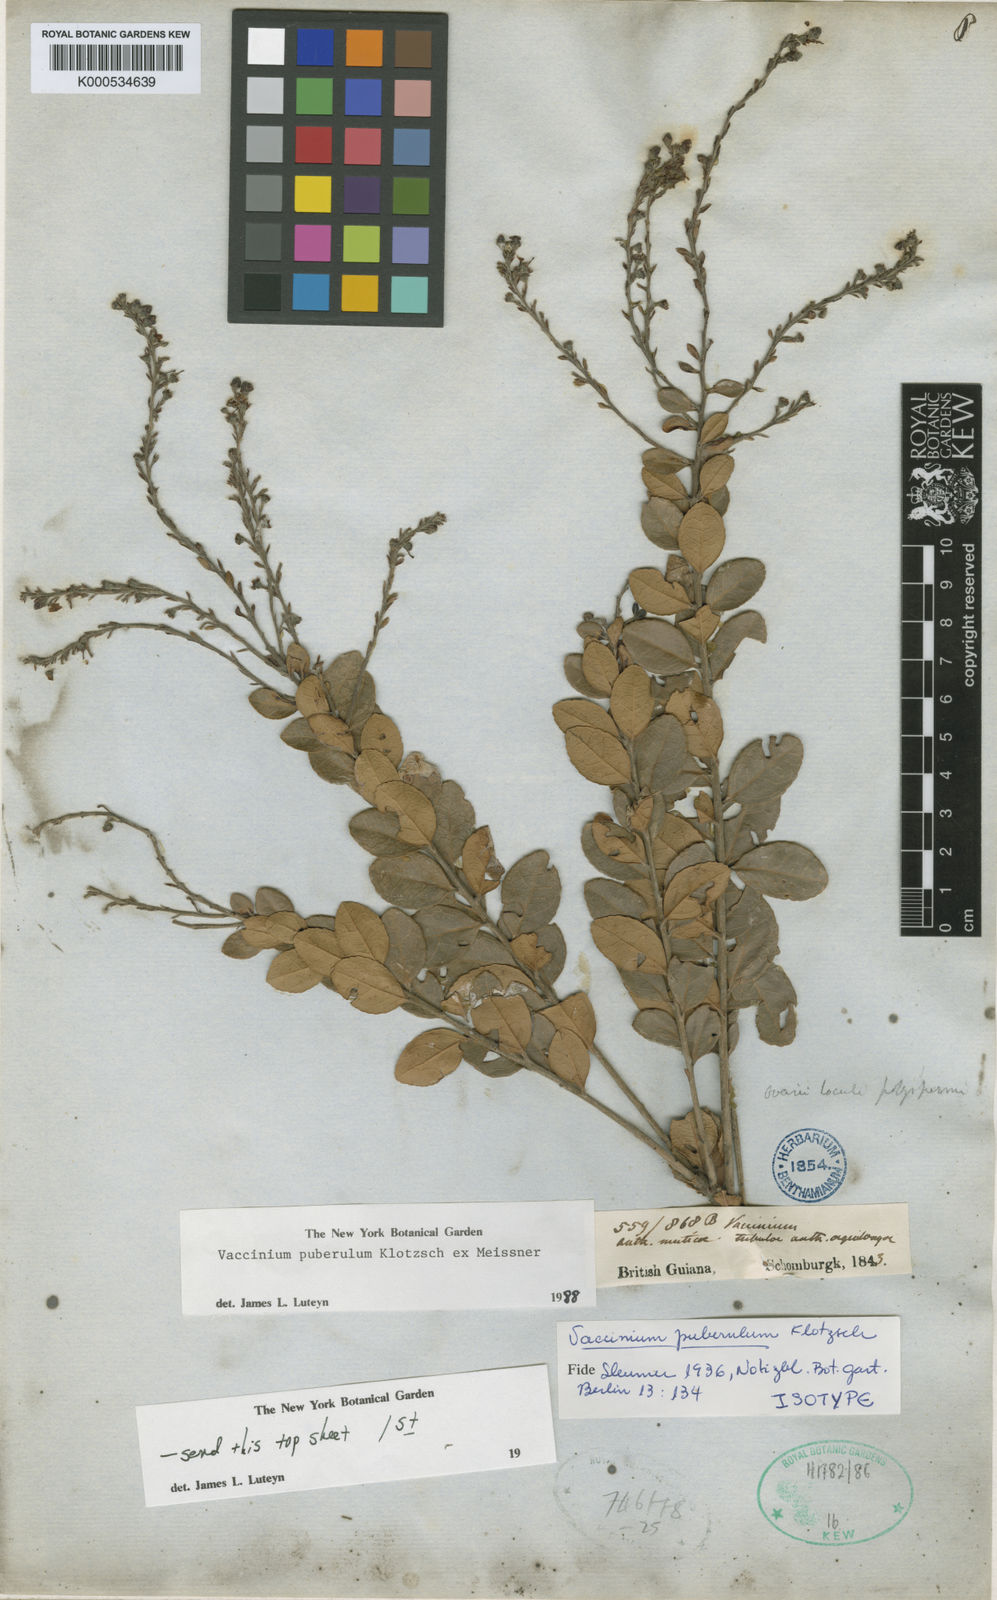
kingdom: Plantae
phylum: Tracheophyta
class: Magnoliopsida
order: Ericales
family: Ericaceae
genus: Vaccinium
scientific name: Vaccinium puberulum
